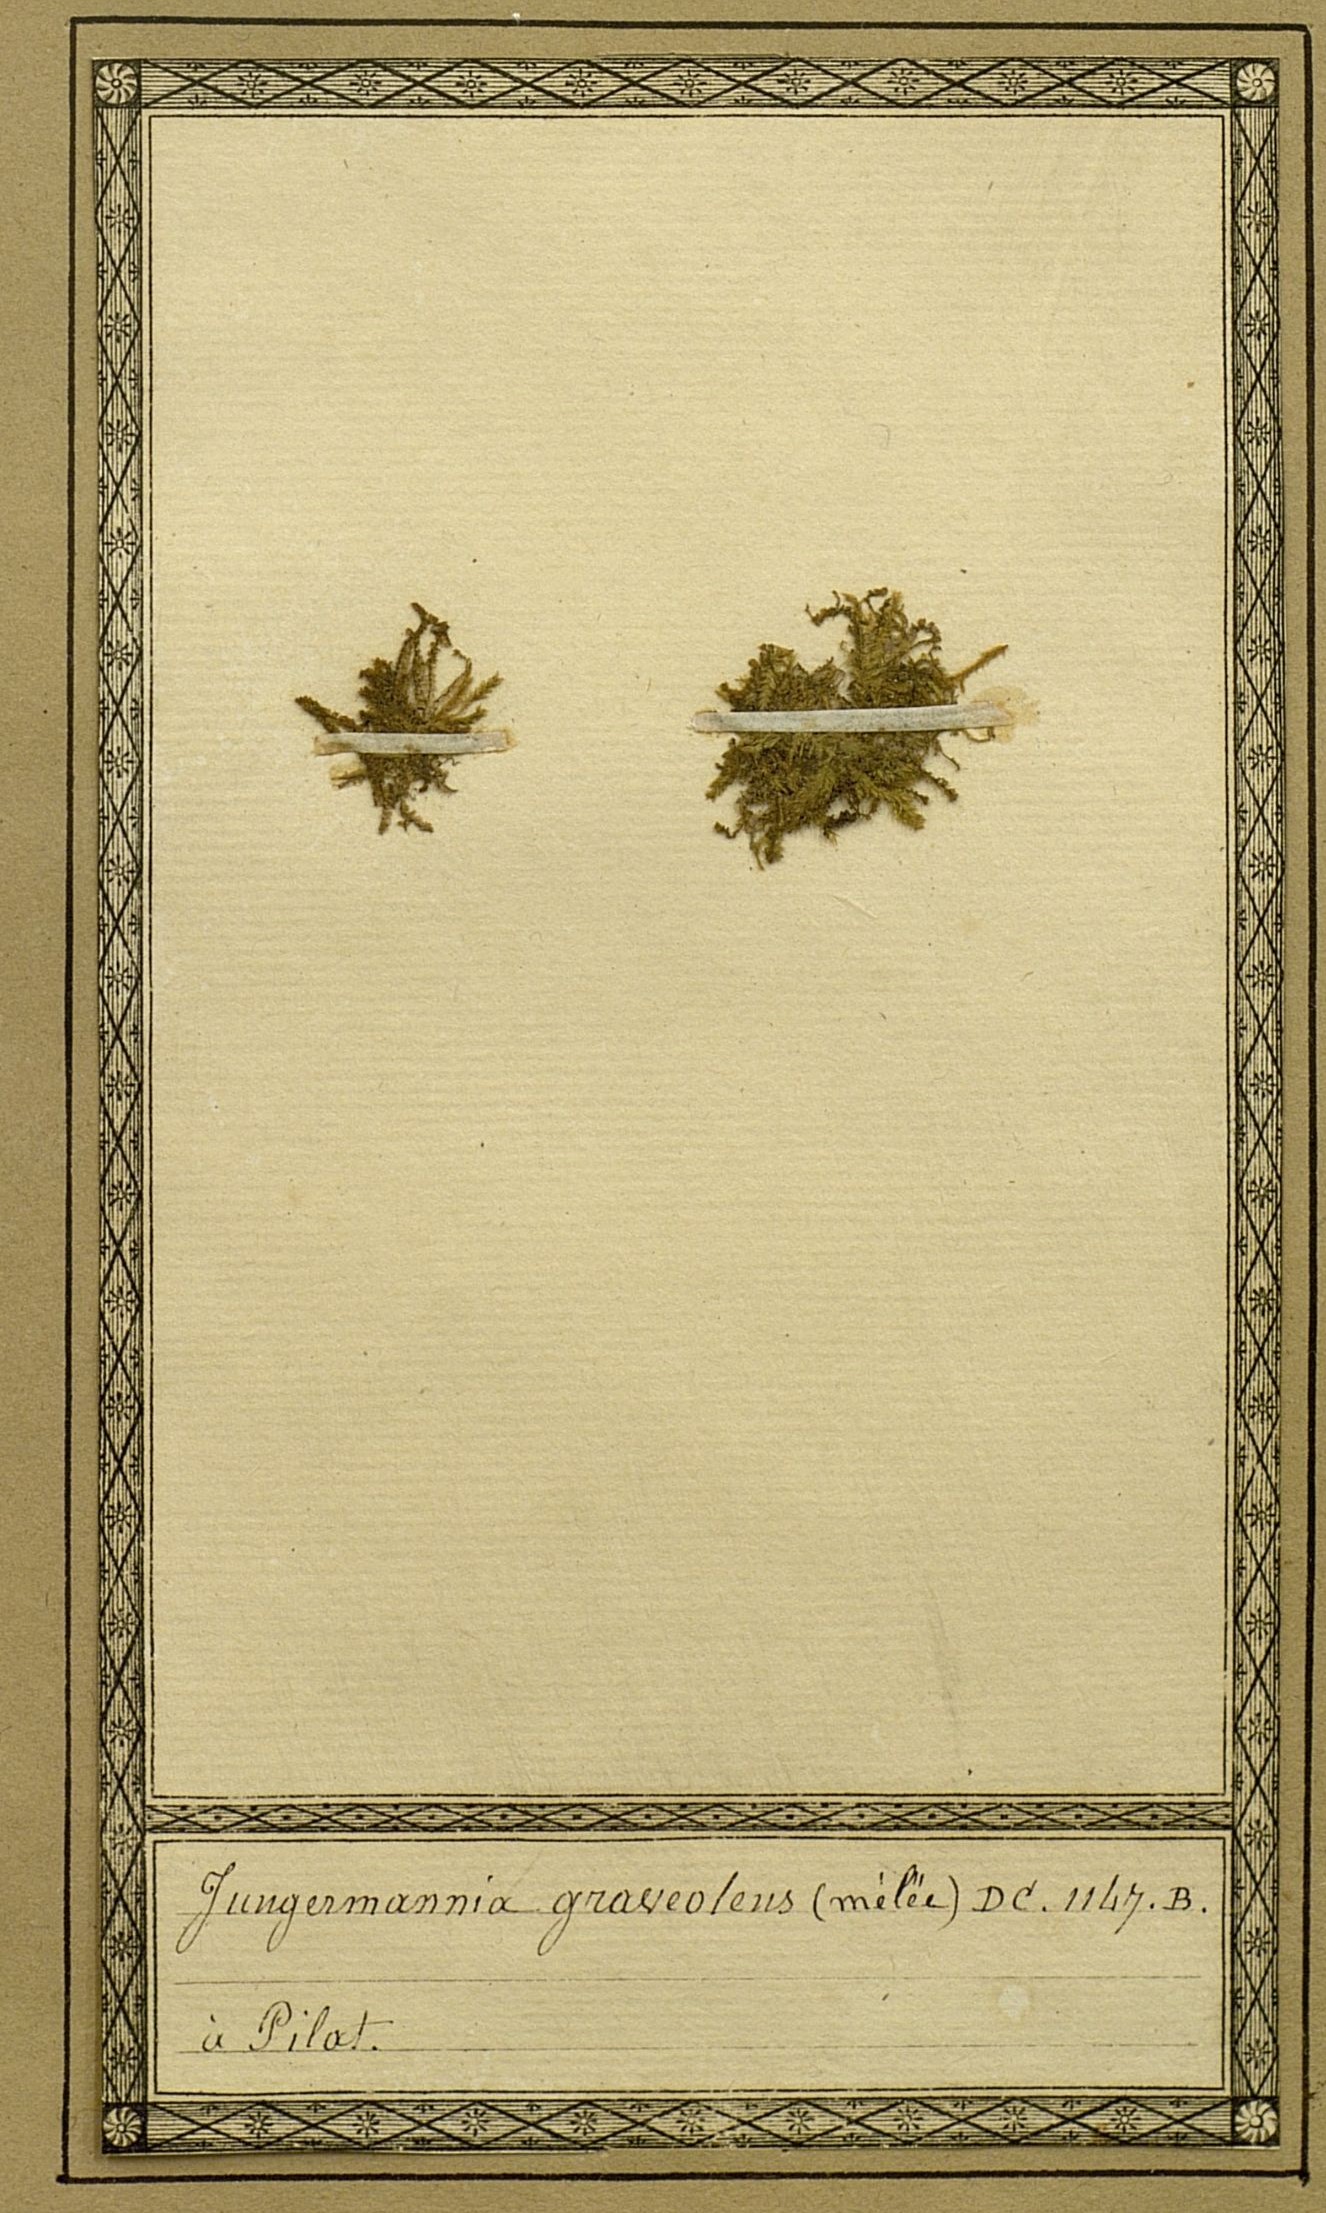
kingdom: Plantae
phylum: Marchantiophyta
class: Jungermanniopsida
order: Jungermanniales
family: Geocalycaceae
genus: Geocalyx
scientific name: Geocalyx graveolens
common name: Turps pouchwort
